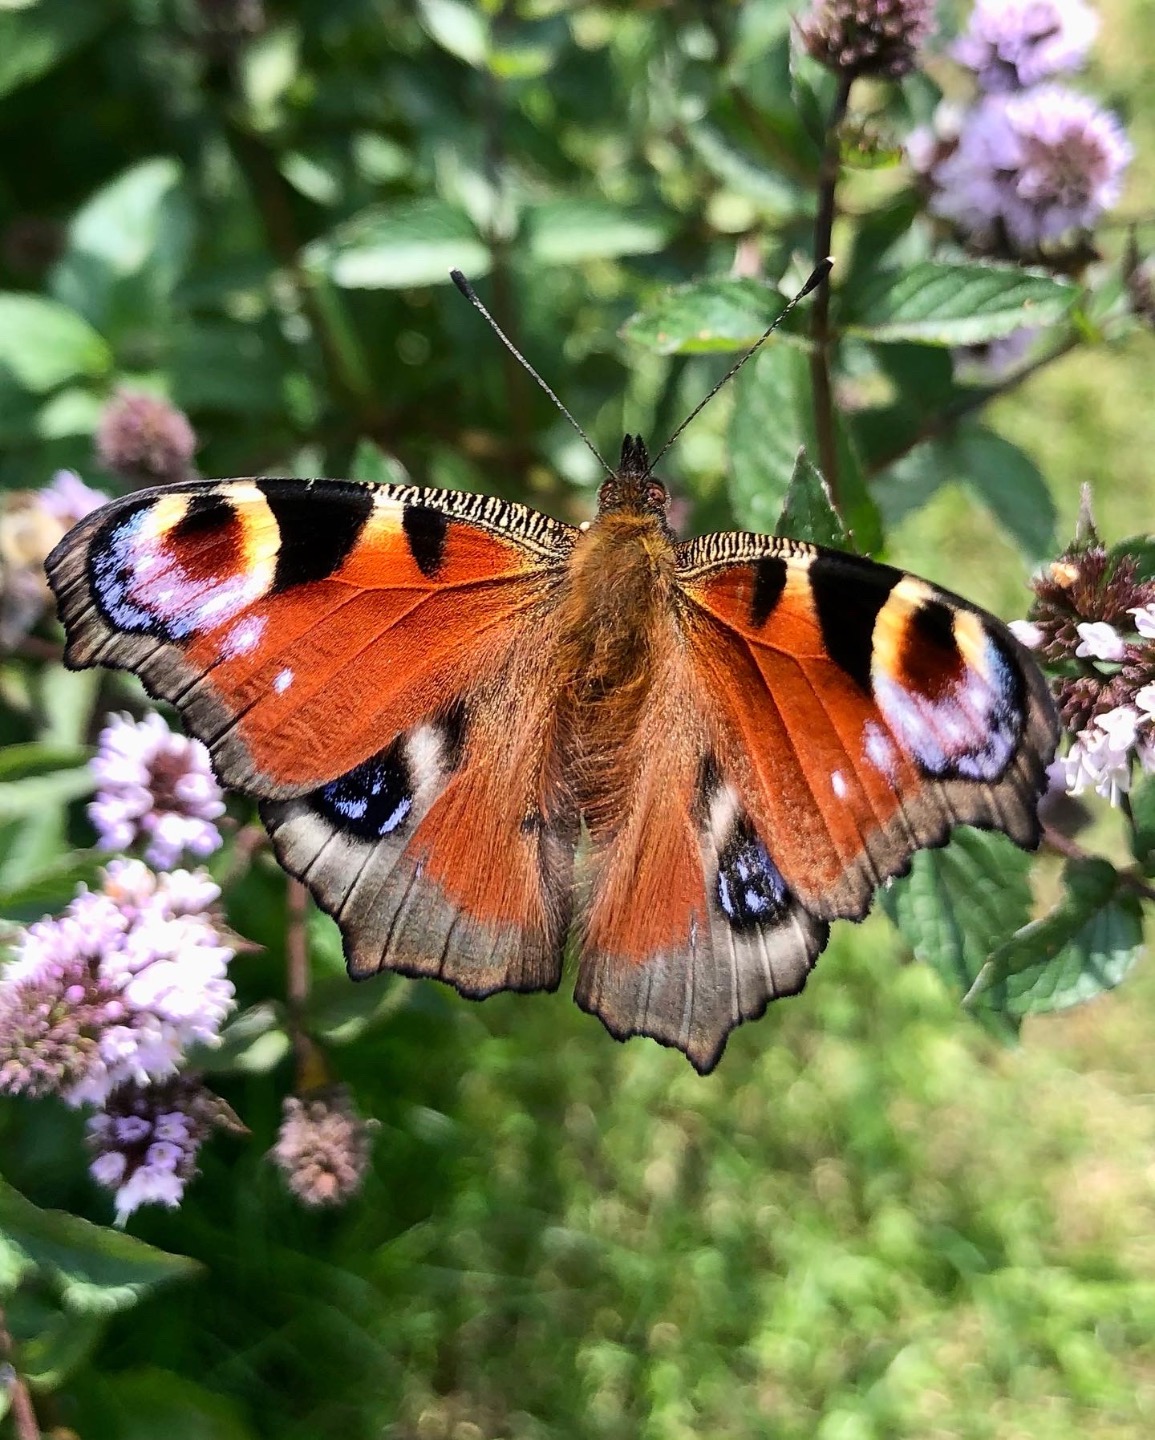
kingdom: Animalia
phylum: Arthropoda
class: Insecta
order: Lepidoptera
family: Nymphalidae
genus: Aglais
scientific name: Aglais io
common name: Dagpåfugleøje
